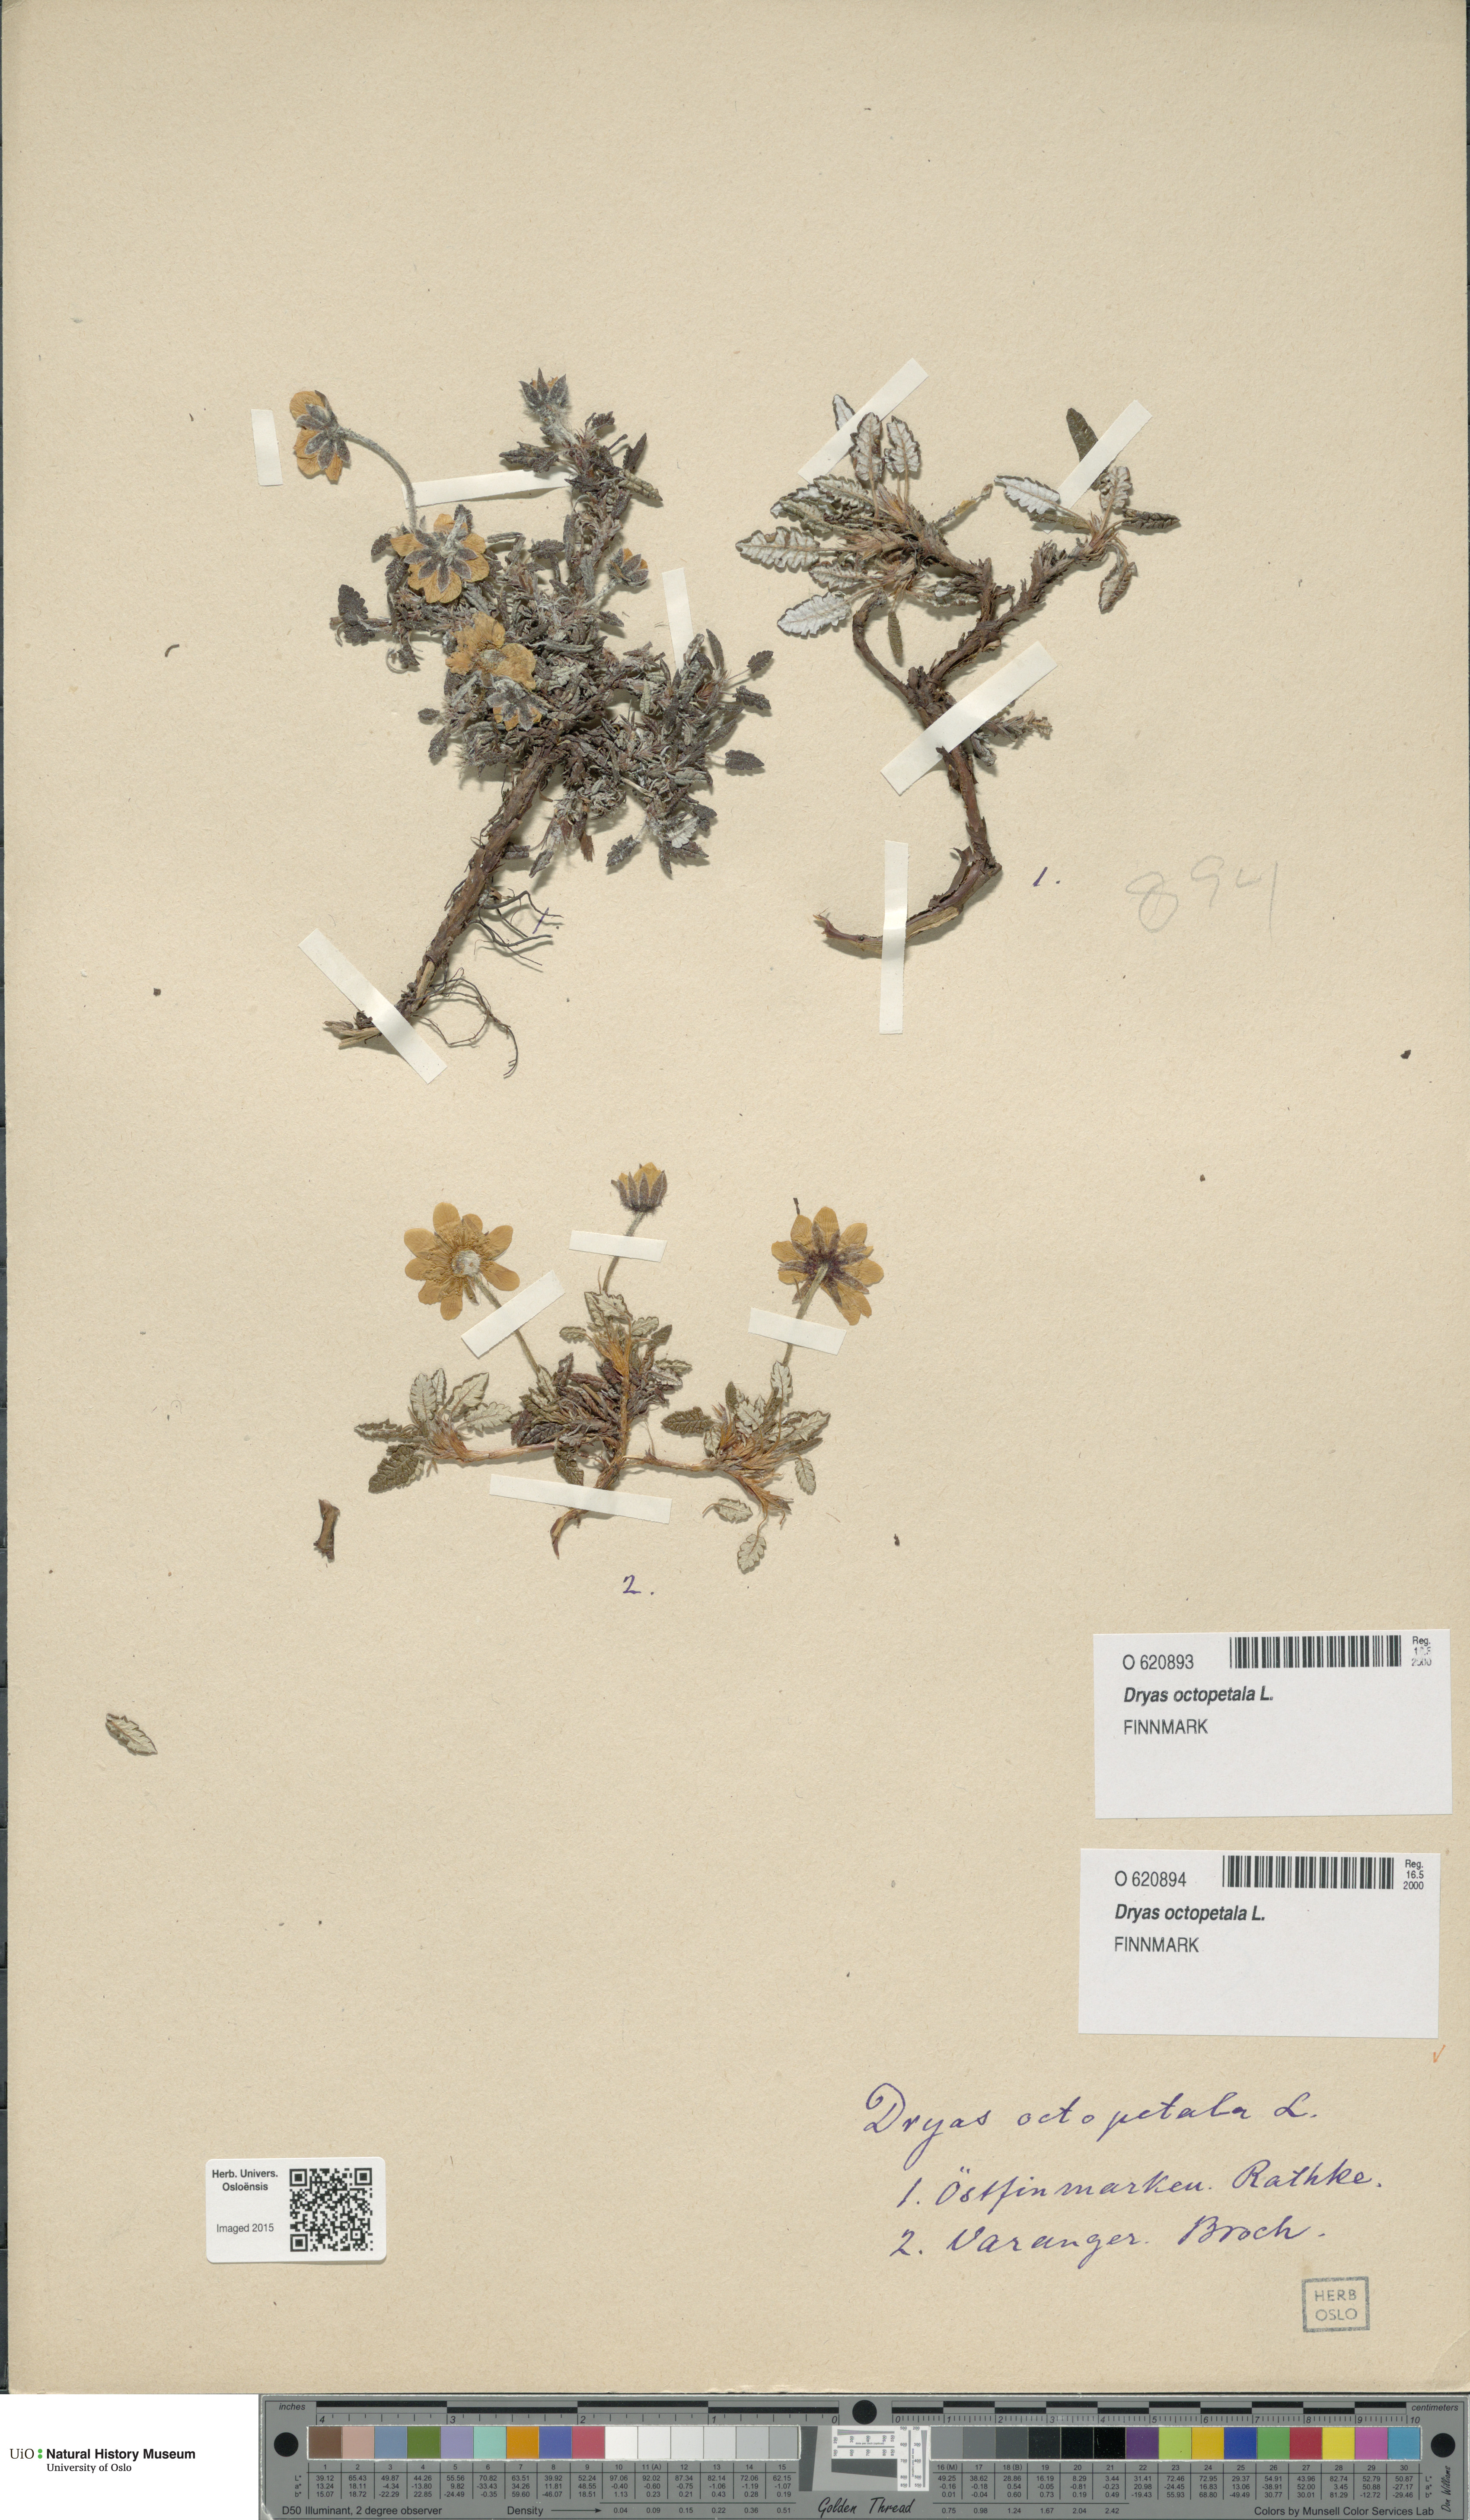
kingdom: Plantae
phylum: Tracheophyta
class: Magnoliopsida
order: Rosales
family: Rosaceae
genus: Dryas
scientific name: Dryas octopetala
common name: Eight-petal mountain-avens
